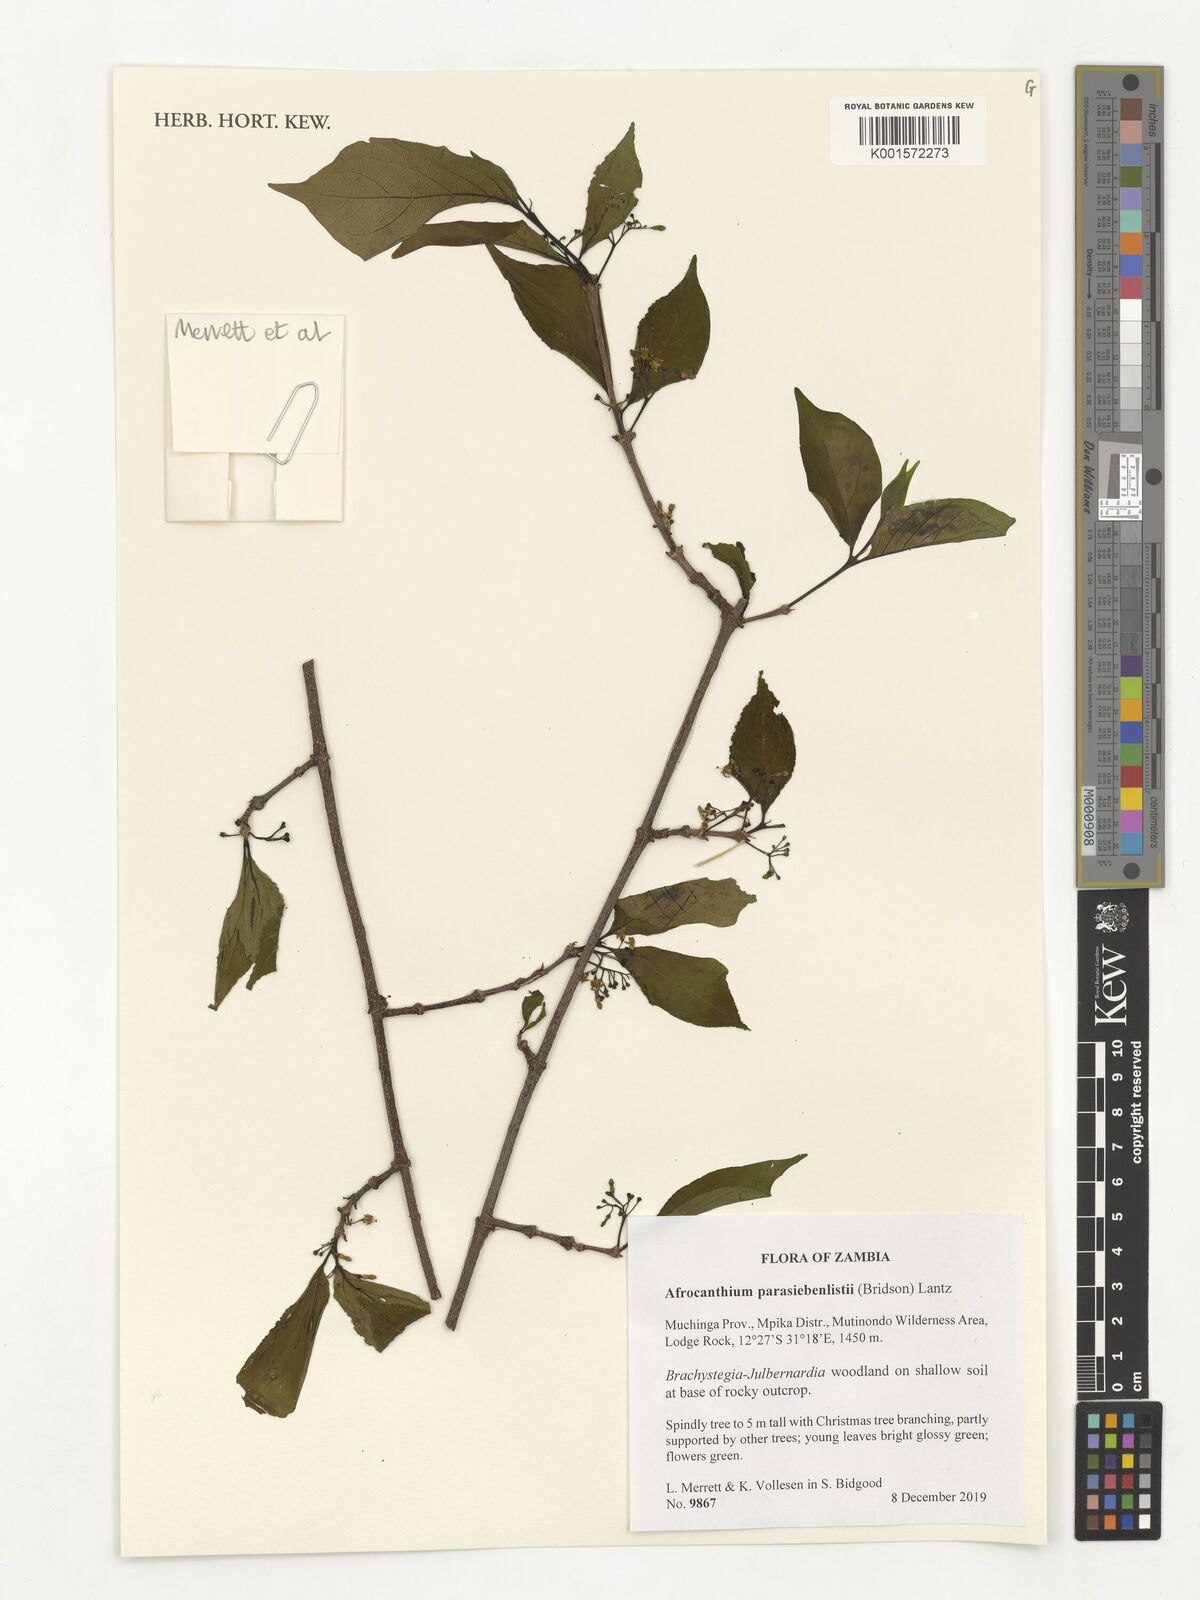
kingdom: Plantae
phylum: Tracheophyta
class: Magnoliopsida
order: Gentianales
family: Rubiaceae
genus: Afrocanthium
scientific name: Afrocanthium parasiebenlistii
